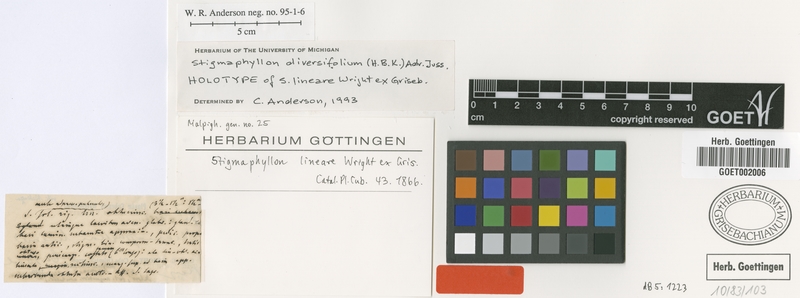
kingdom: Plantae
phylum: Tracheophyta
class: Magnoliopsida
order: Malpighiales
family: Malpighiaceae
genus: Stigmaphyllon
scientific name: Stigmaphyllon diversifolium
